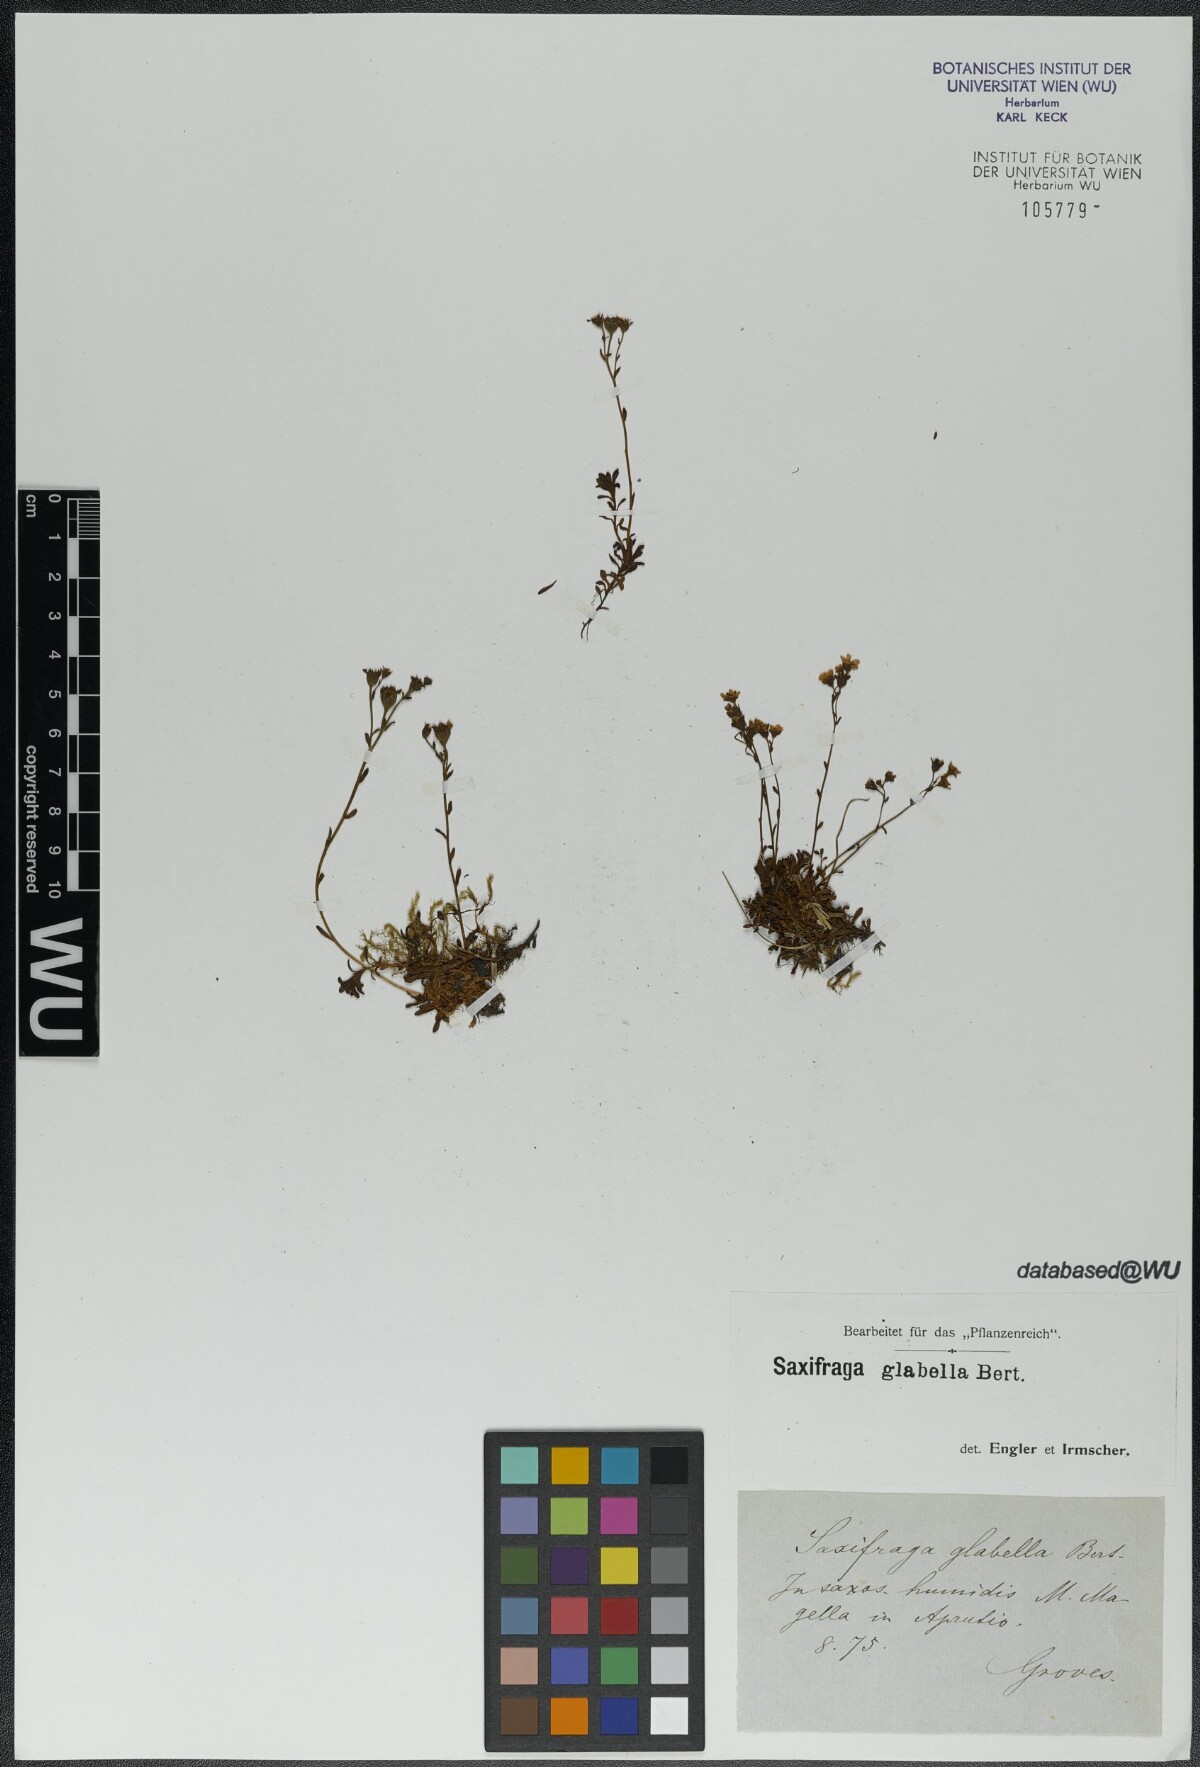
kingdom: Plantae
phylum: Tracheophyta
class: Magnoliopsida
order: Saxifragales
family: Saxifragaceae
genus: Saxifraga
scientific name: Saxifraga glabella
